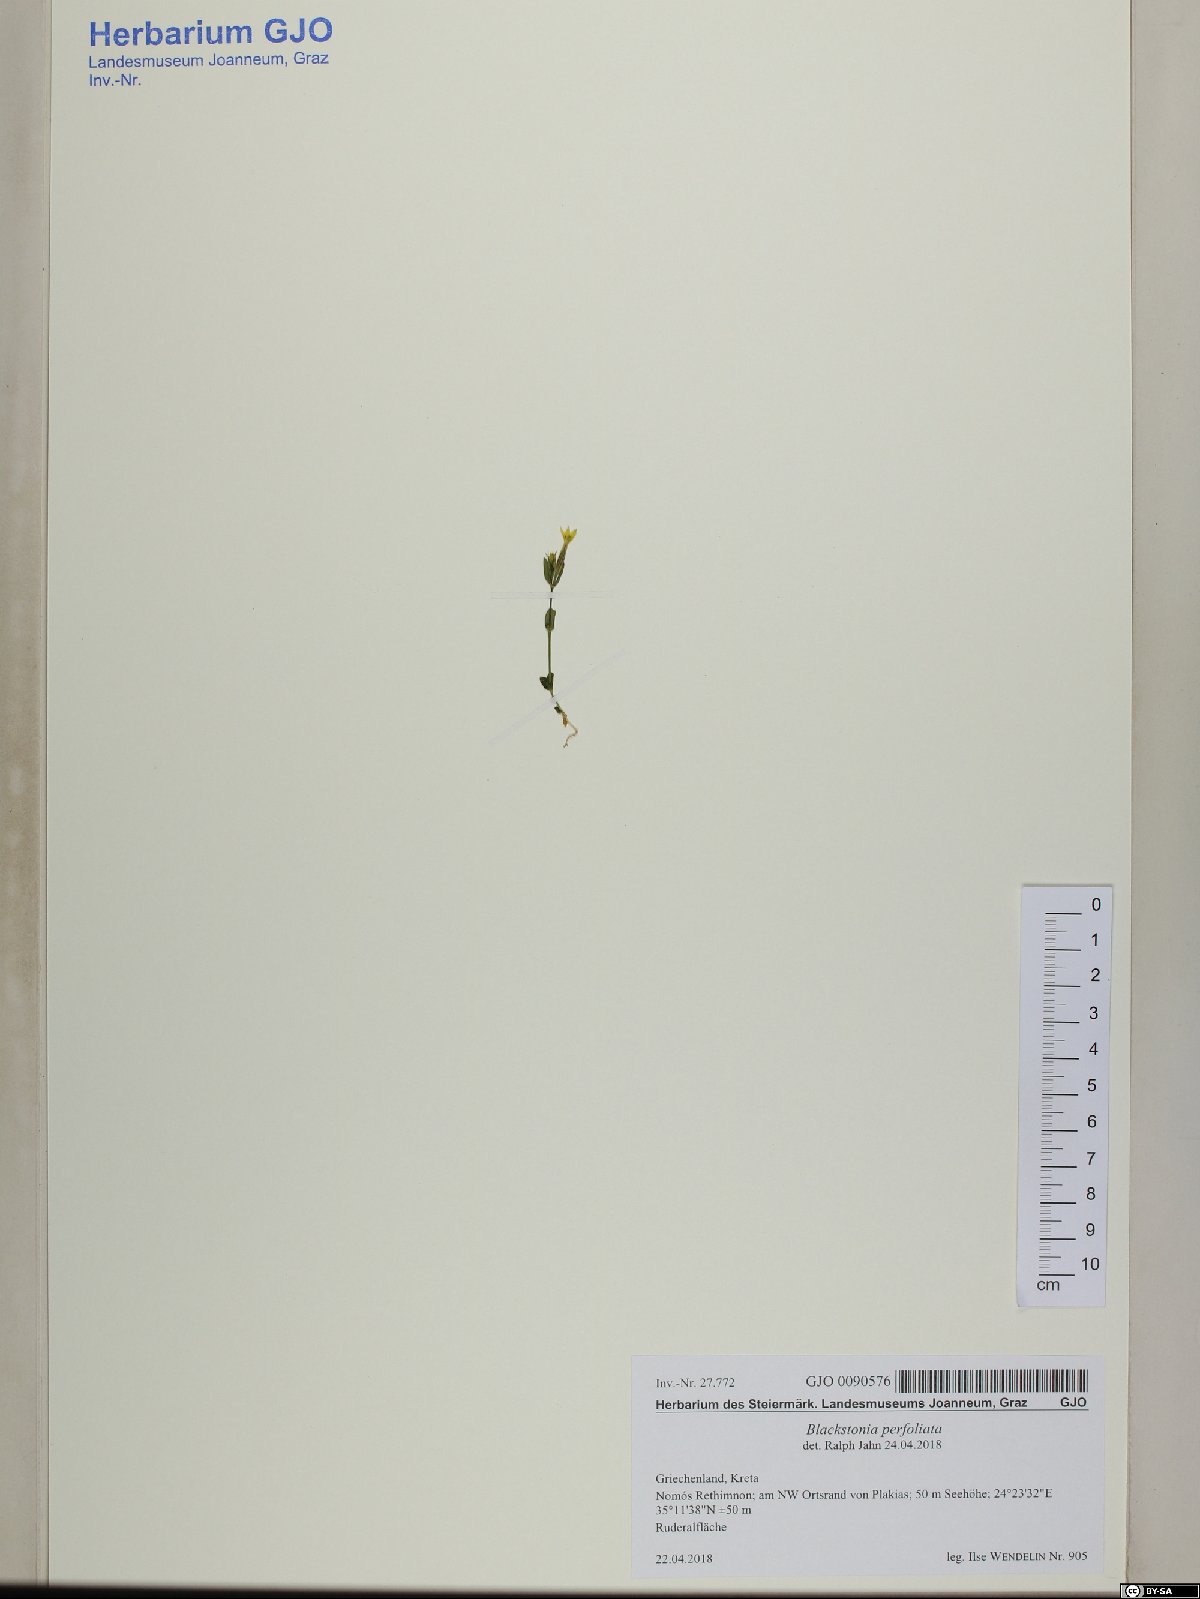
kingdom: Plantae
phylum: Tracheophyta
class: Magnoliopsida
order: Gentianales
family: Gentianaceae
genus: Blackstonia
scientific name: Blackstonia perfoliata
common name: Yellow-wort
